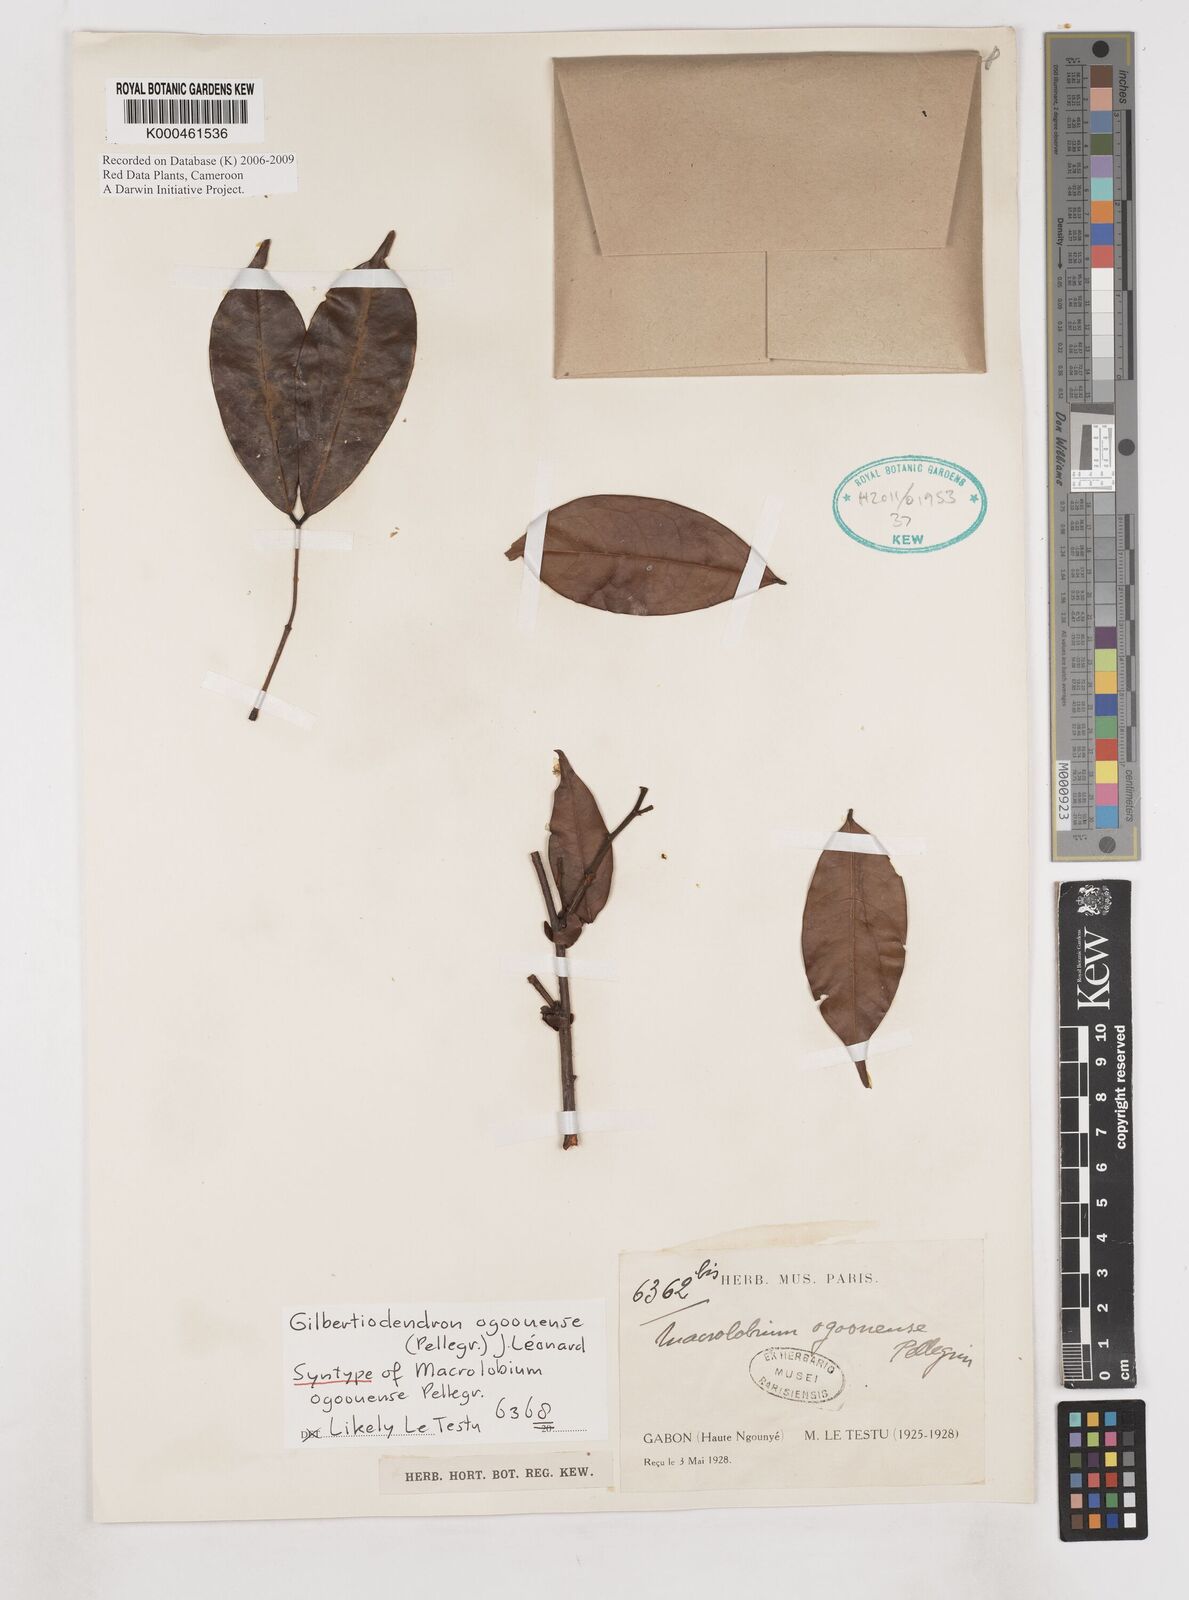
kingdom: Plantae
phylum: Tracheophyta
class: Magnoliopsida
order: Fabales
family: Fabaceae
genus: Gilbertiodendron
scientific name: Gilbertiodendron ogoouense
